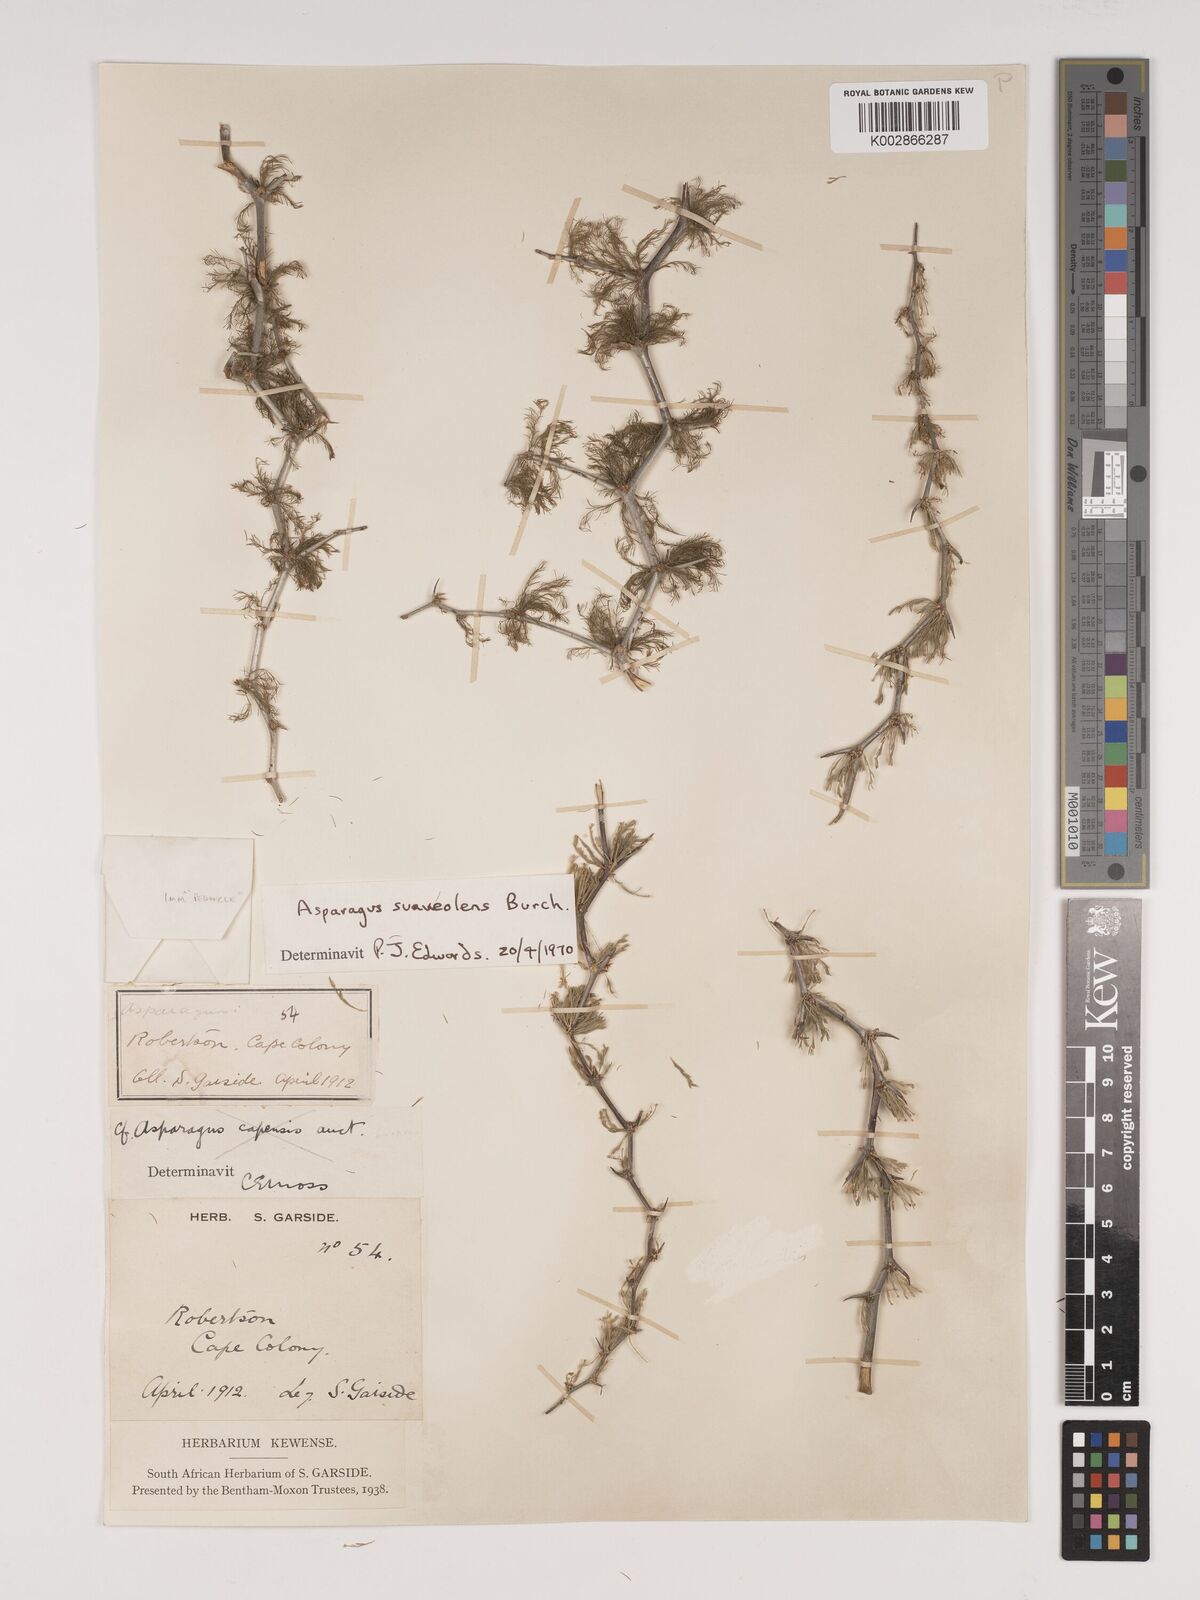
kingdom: Plantae
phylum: Tracheophyta
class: Liliopsida
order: Asparagales
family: Asparagaceae
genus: Asparagus
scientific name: Asparagus suaveolens
